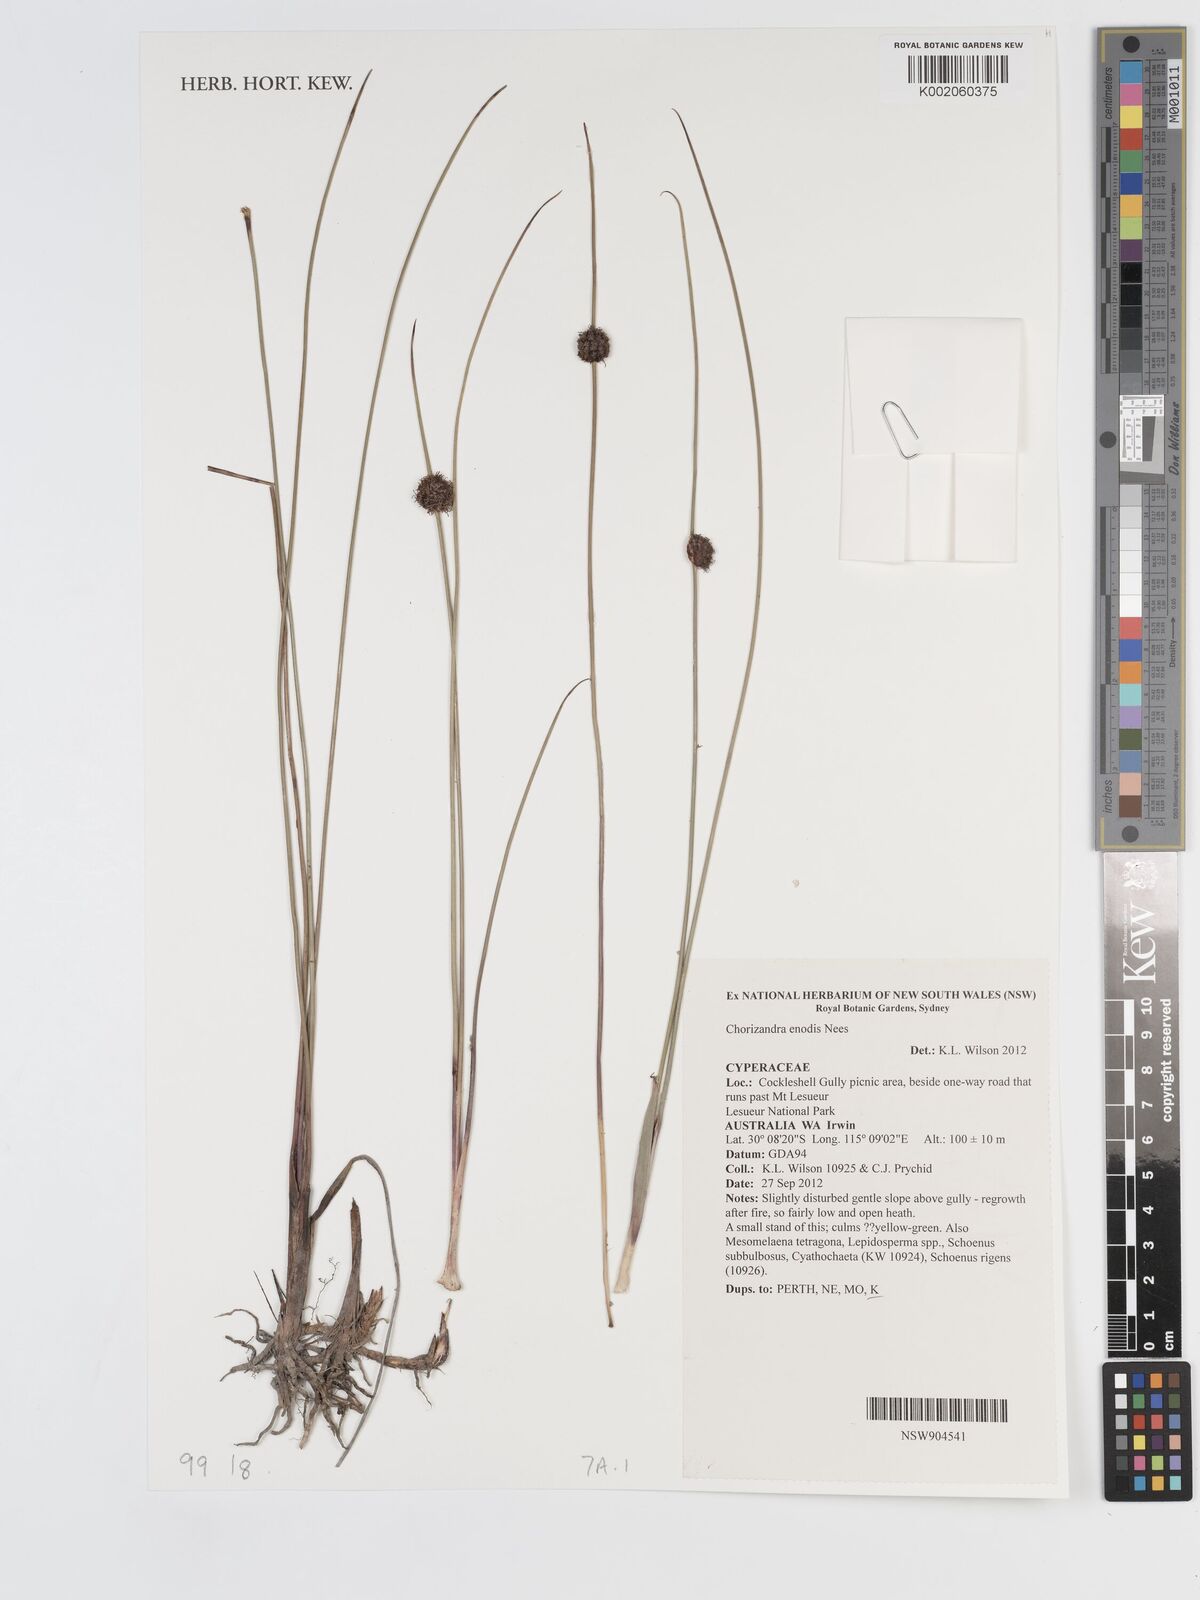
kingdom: Plantae
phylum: Tracheophyta
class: Liliopsida
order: Poales
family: Cyperaceae
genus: Chorizandra
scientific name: Chorizandra enodis
